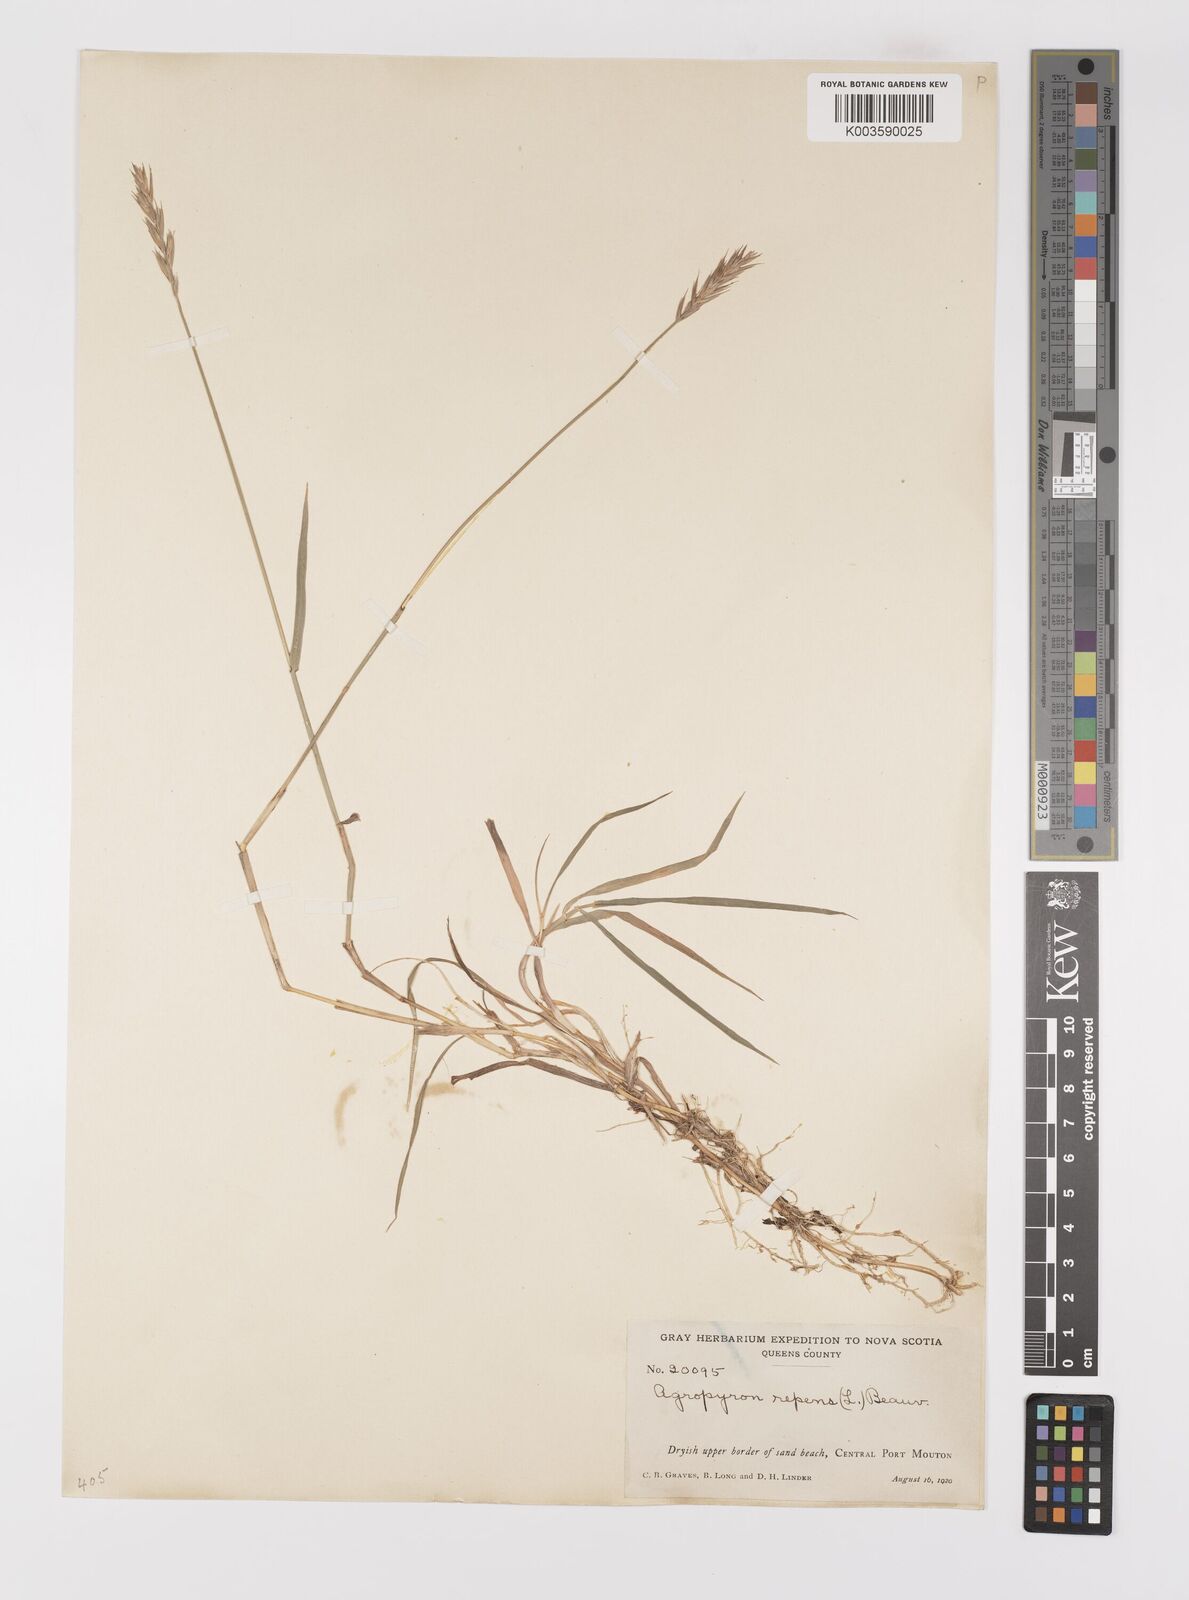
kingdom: Plantae
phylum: Tracheophyta
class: Liliopsida
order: Poales
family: Poaceae
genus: Elymus
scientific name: Elymus repens
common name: Quackgrass
